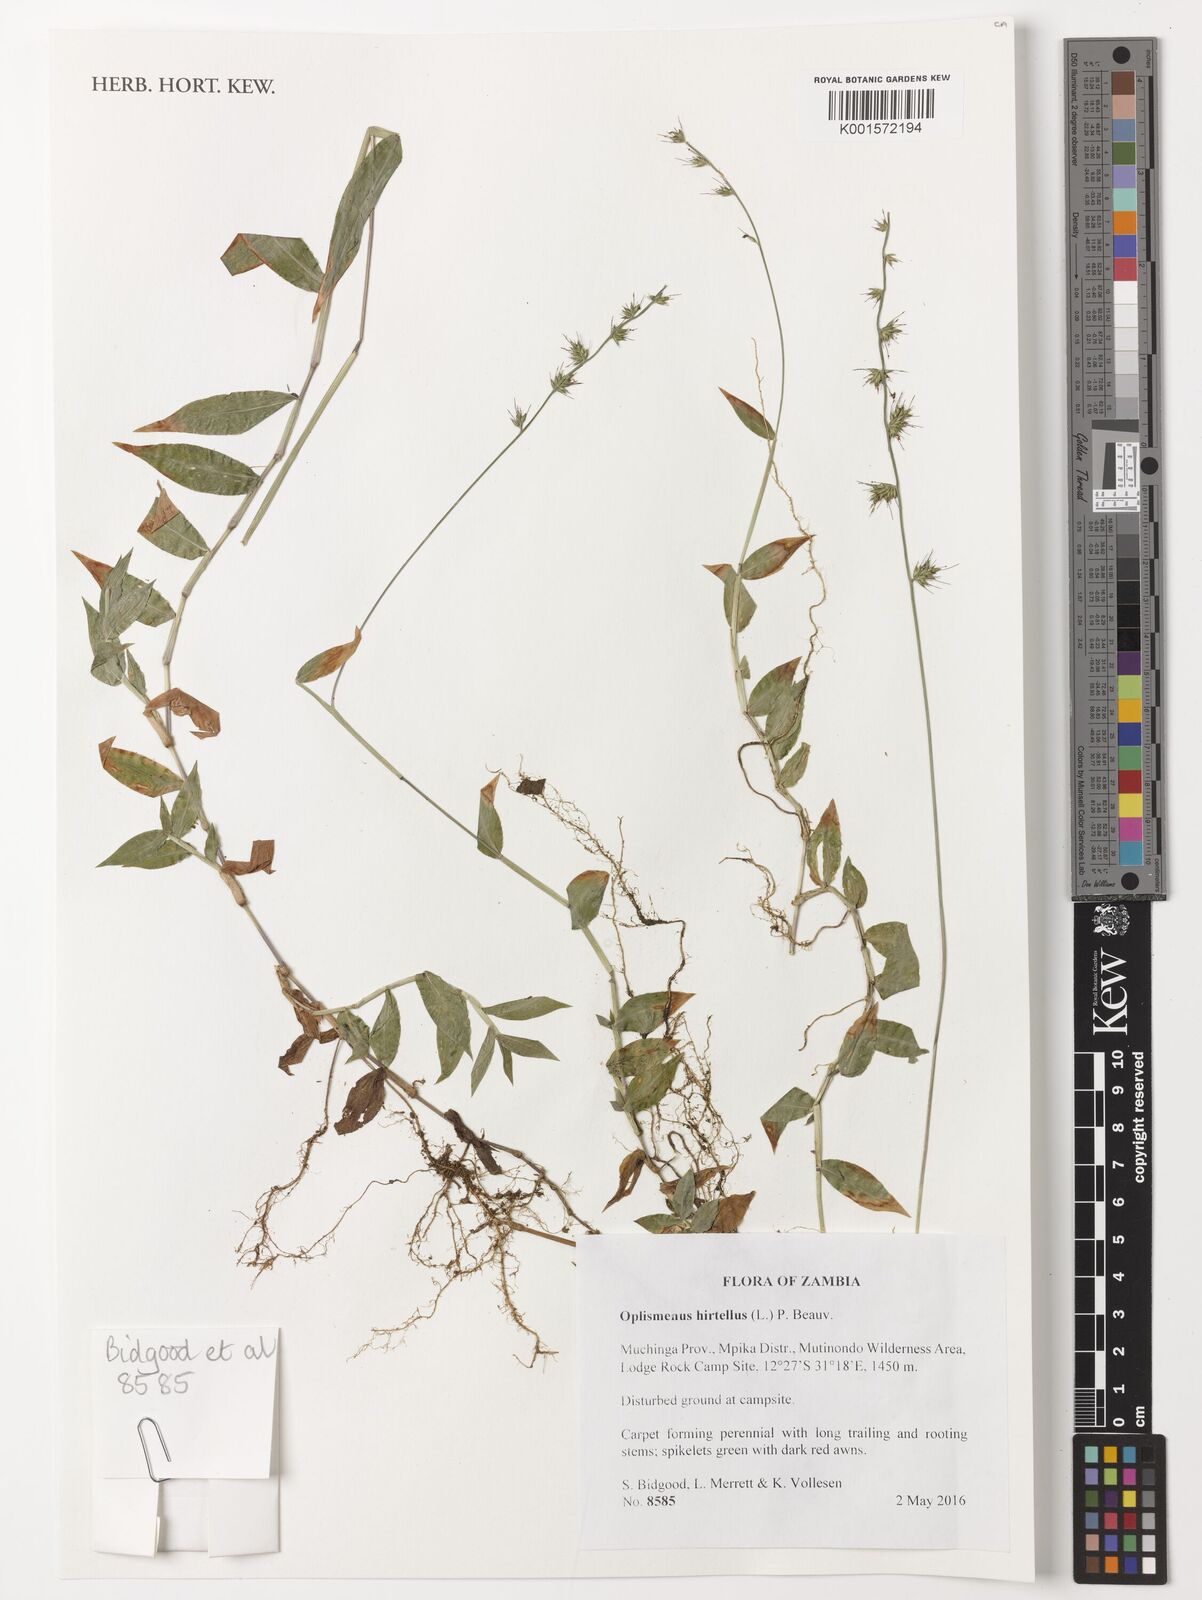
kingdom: Plantae
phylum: Tracheophyta
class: Liliopsida
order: Poales
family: Poaceae
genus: Oplismenus
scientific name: Oplismenus hirtellus
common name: Basketgrass
